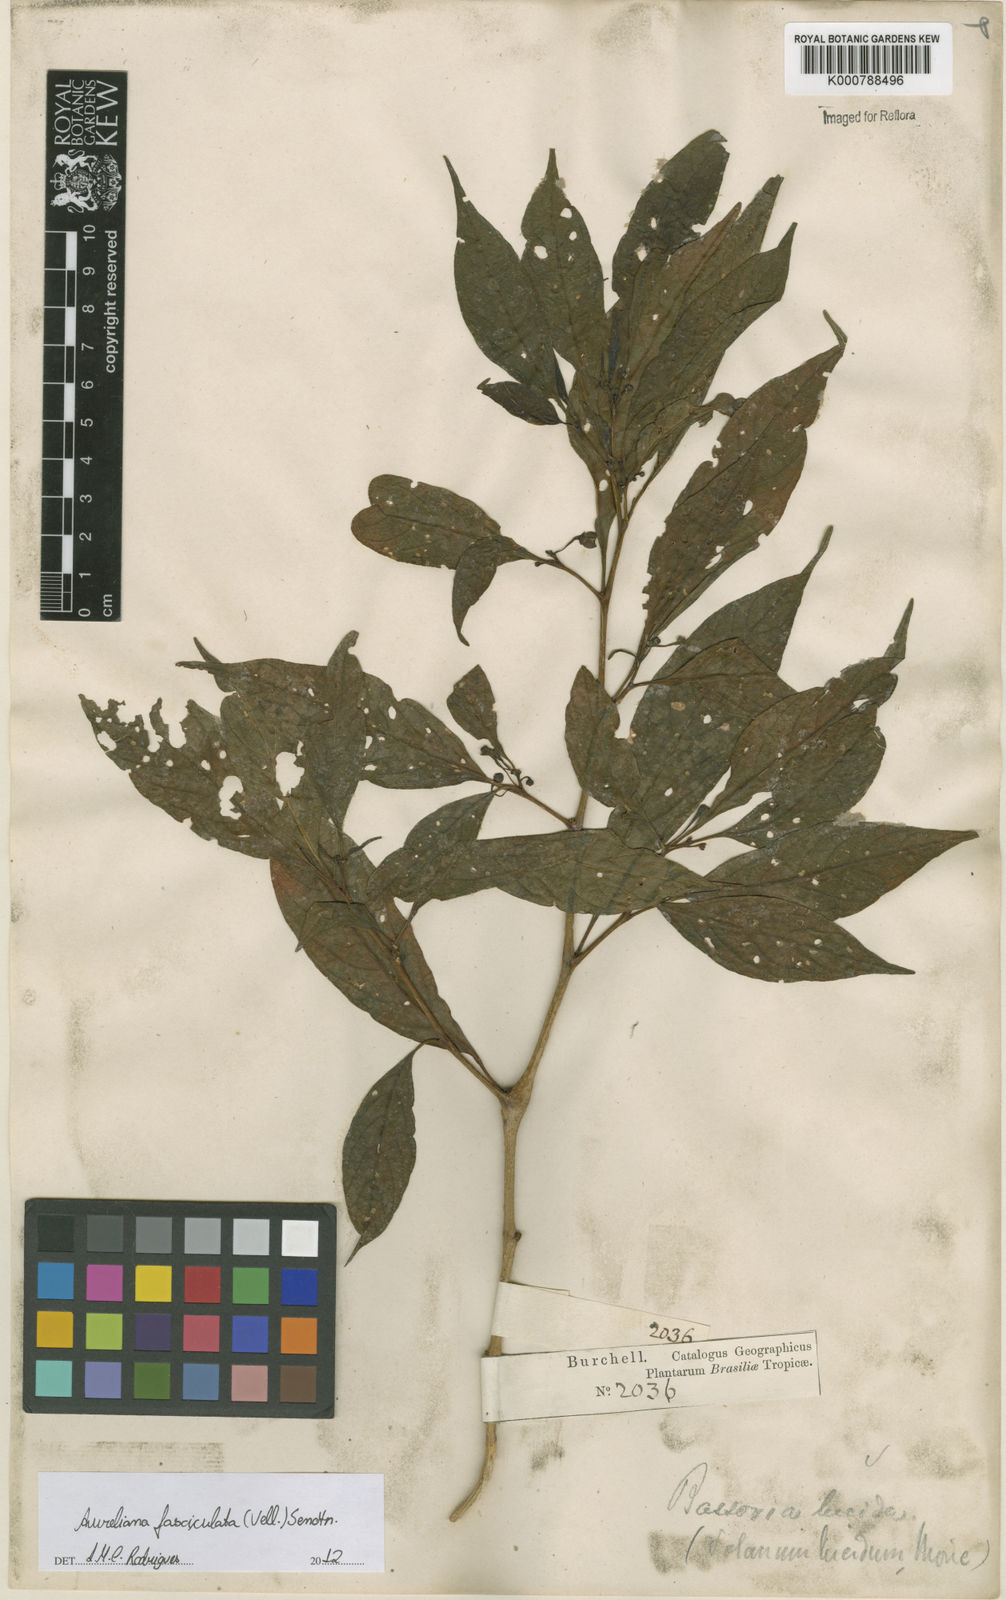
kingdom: Plantae
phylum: Tracheophyta
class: Magnoliopsida
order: Solanales
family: Solanaceae
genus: Athenaea
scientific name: Athenaea fasciculata
